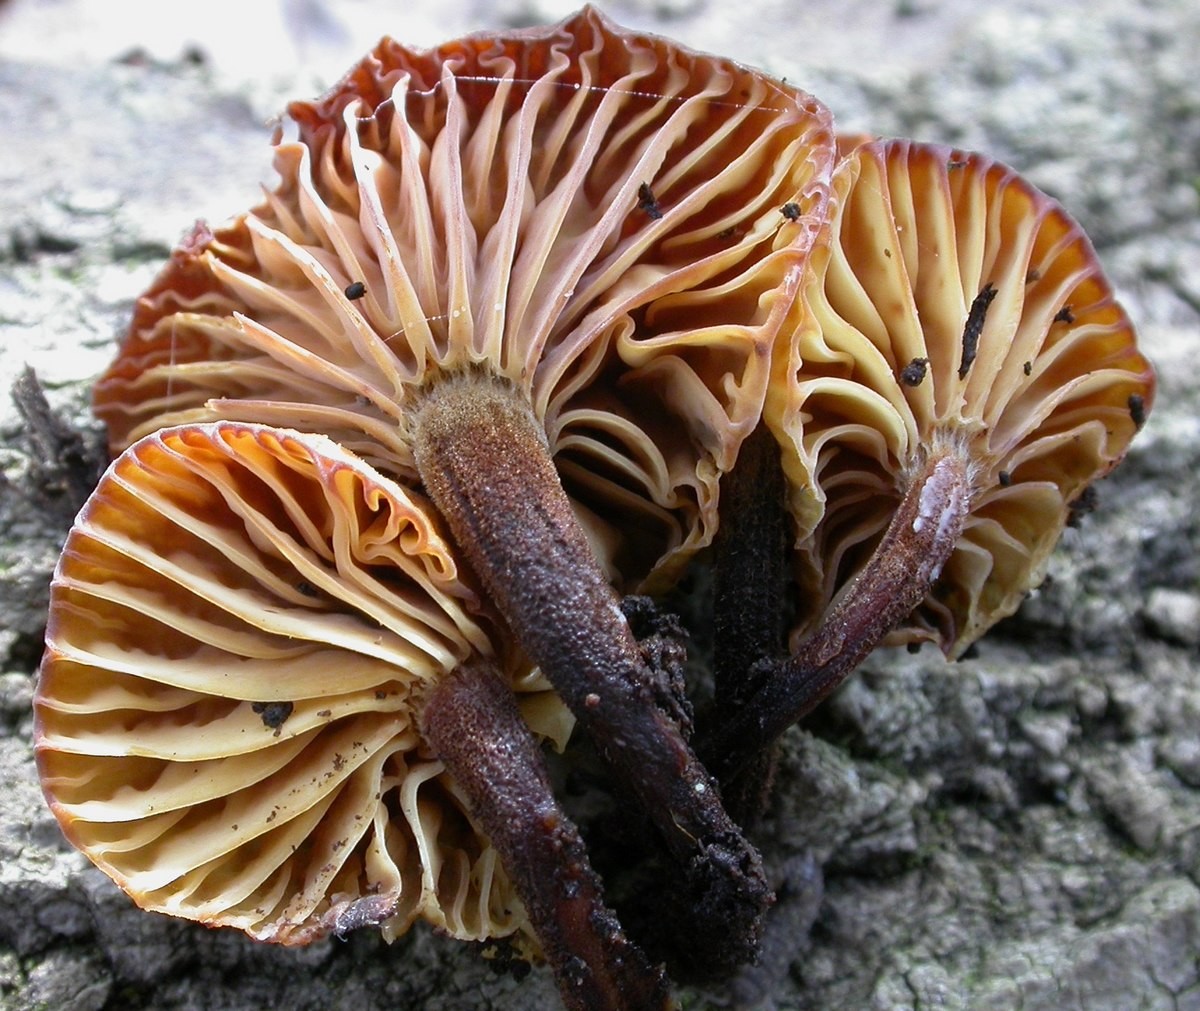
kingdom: Fungi
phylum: Basidiomycota
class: Agaricomycetes
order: Agaricales
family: Physalacriaceae
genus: Flammulina
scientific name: Flammulina elastica
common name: pile-fløjlsfod
